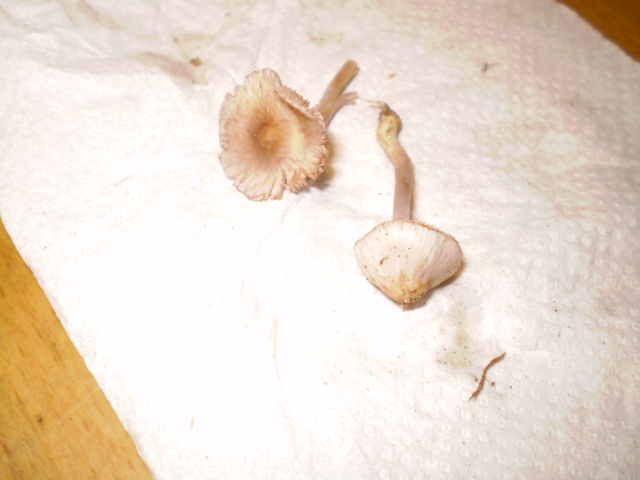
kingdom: Fungi
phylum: Basidiomycota
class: Agaricomycetes
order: Agaricales
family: Inocybaceae
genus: Inocybe
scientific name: Inocybe geophylla
